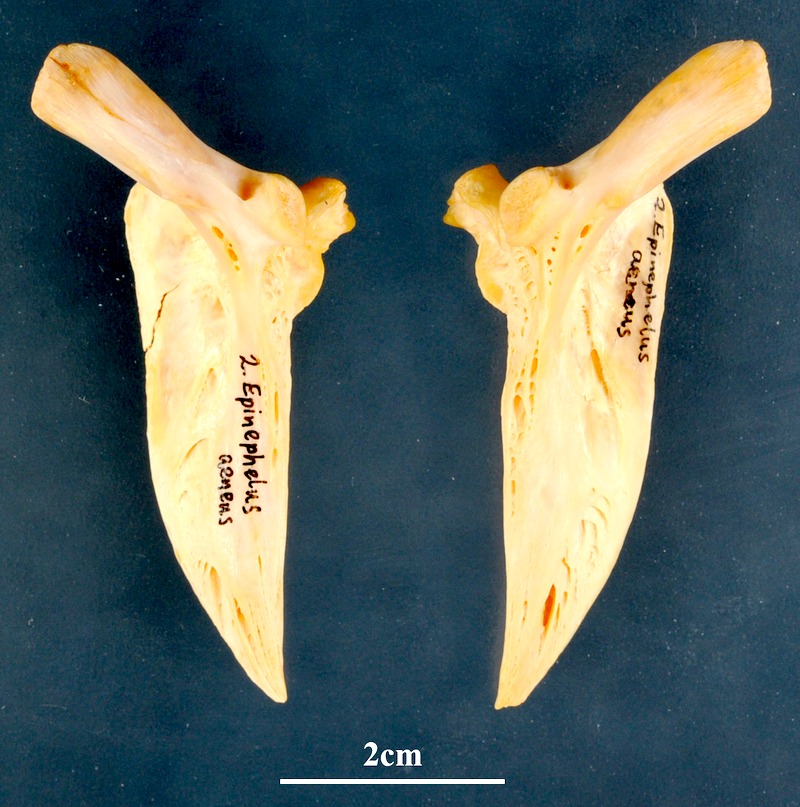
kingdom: Animalia
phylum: Chordata
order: Perciformes
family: Serranidae
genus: Epinephelus
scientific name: Epinephelus aeneus
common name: White grouper
